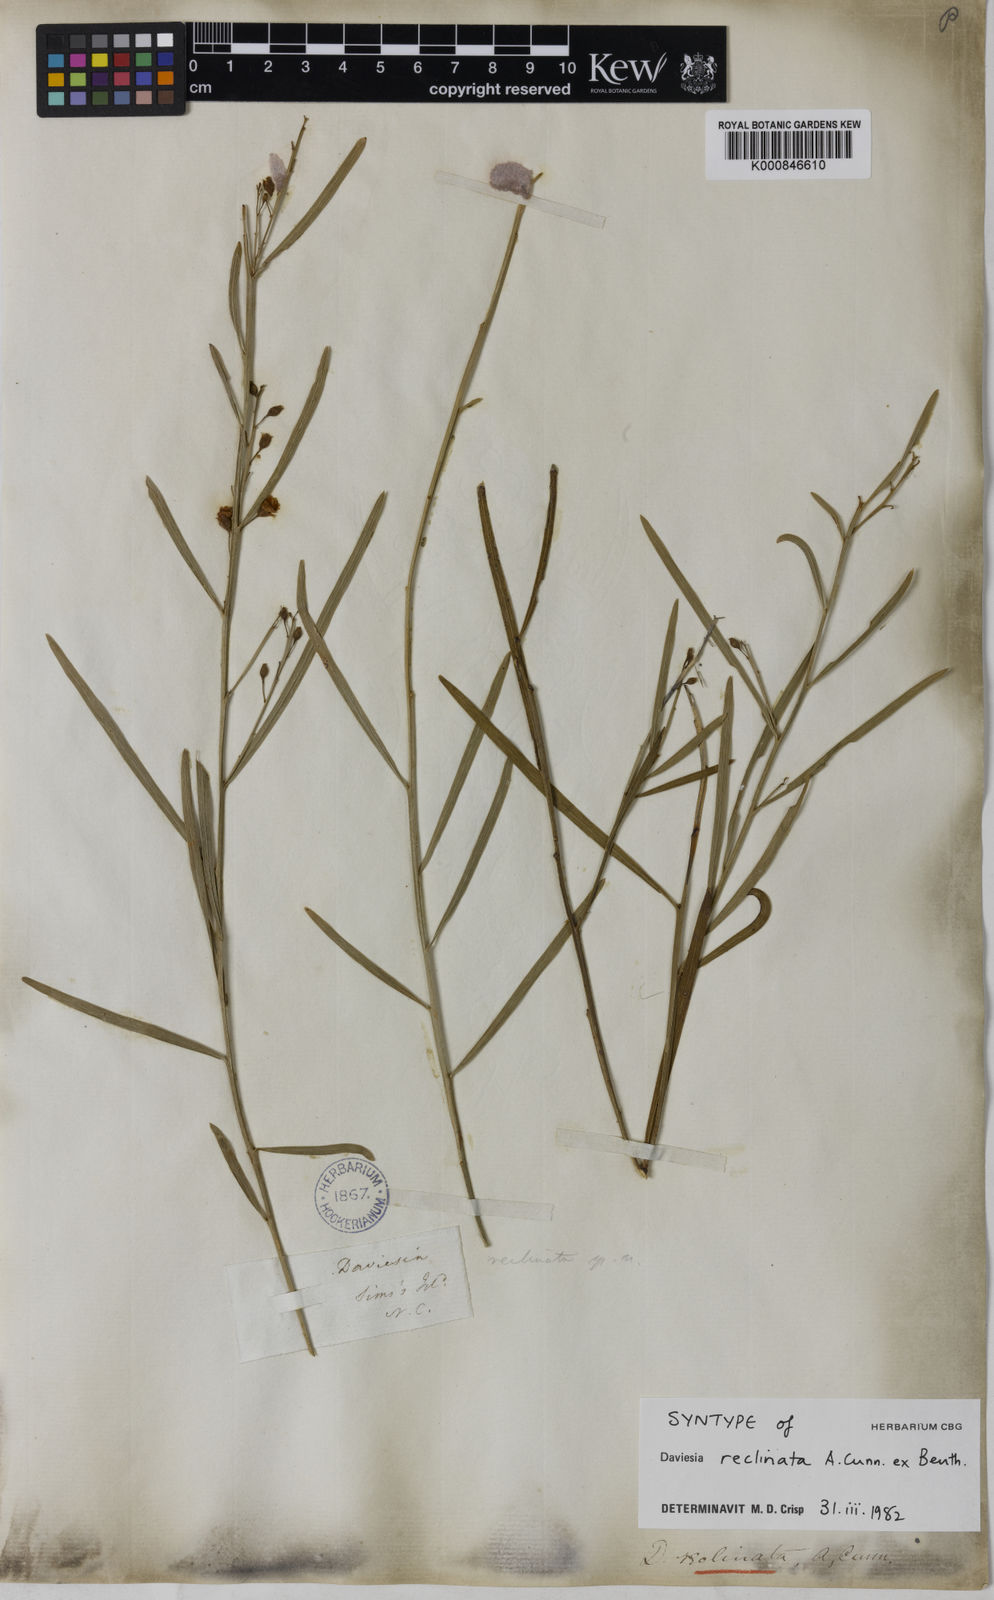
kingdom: Plantae
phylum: Tracheophyta
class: Magnoliopsida
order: Fabales
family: Fabaceae
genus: Daviesia
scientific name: Daviesia reclinata
